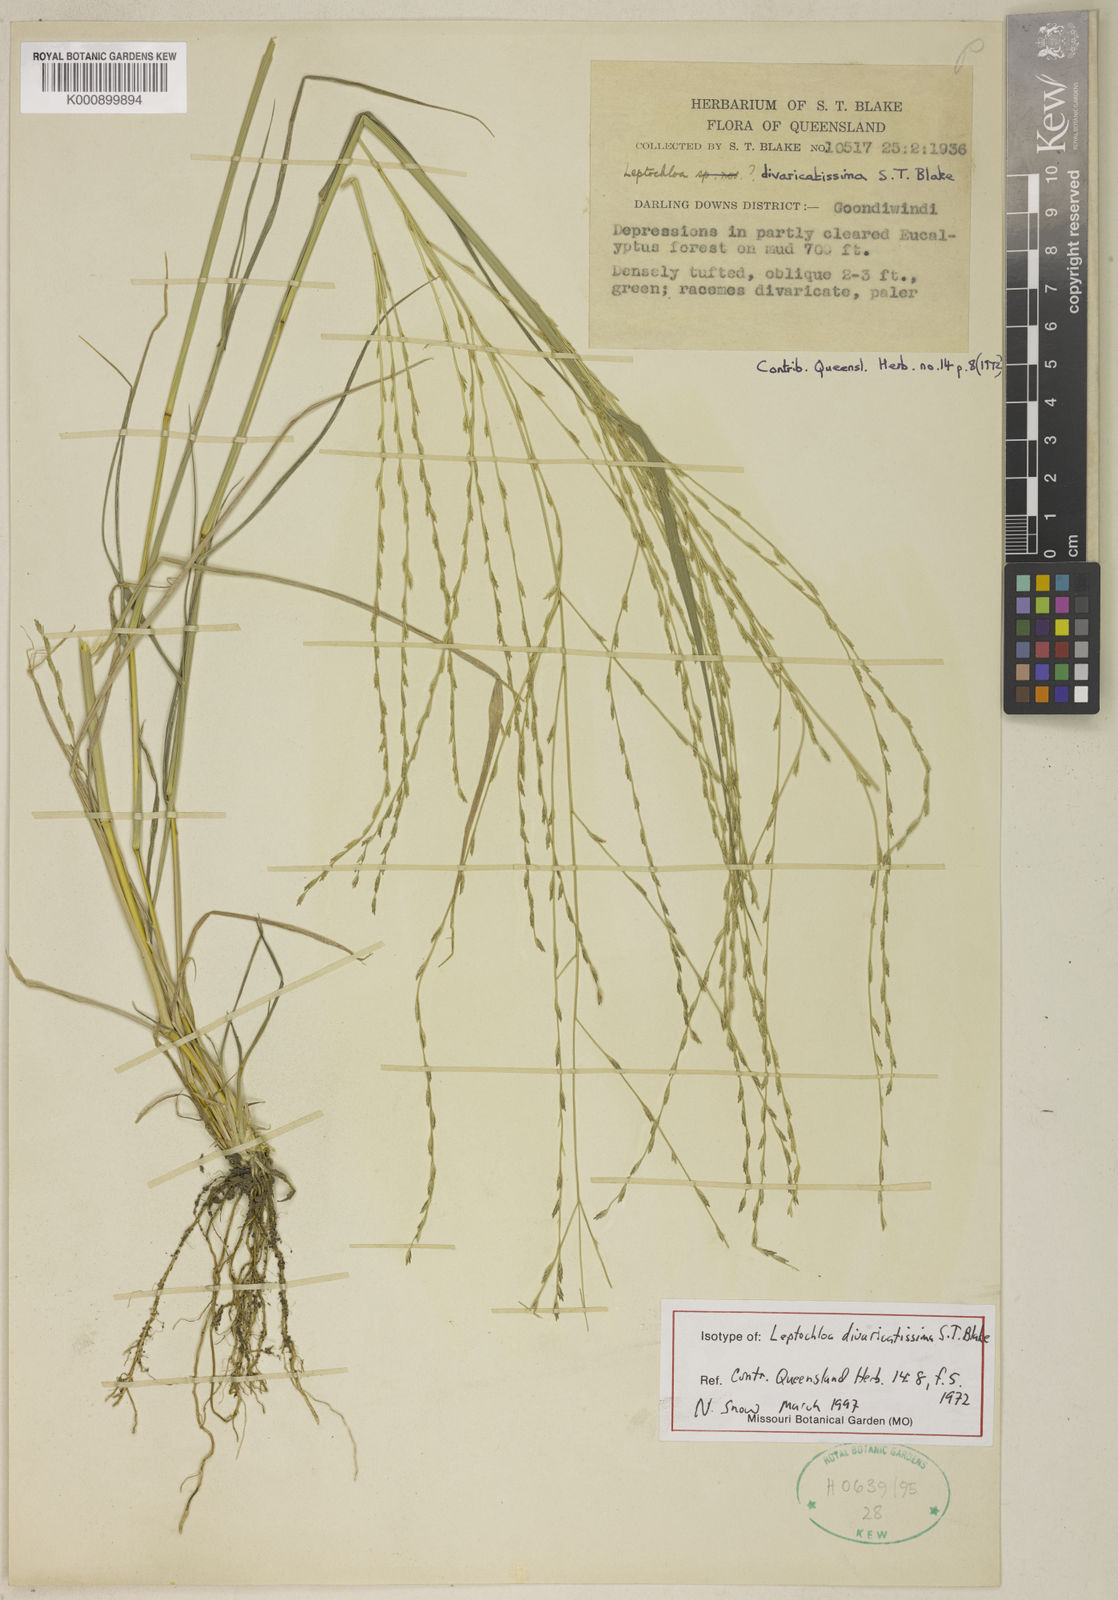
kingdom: Plantae
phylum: Tracheophyta
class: Liliopsida
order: Poales
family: Poaceae
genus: Dinebra
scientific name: Dinebra divaricatissima
